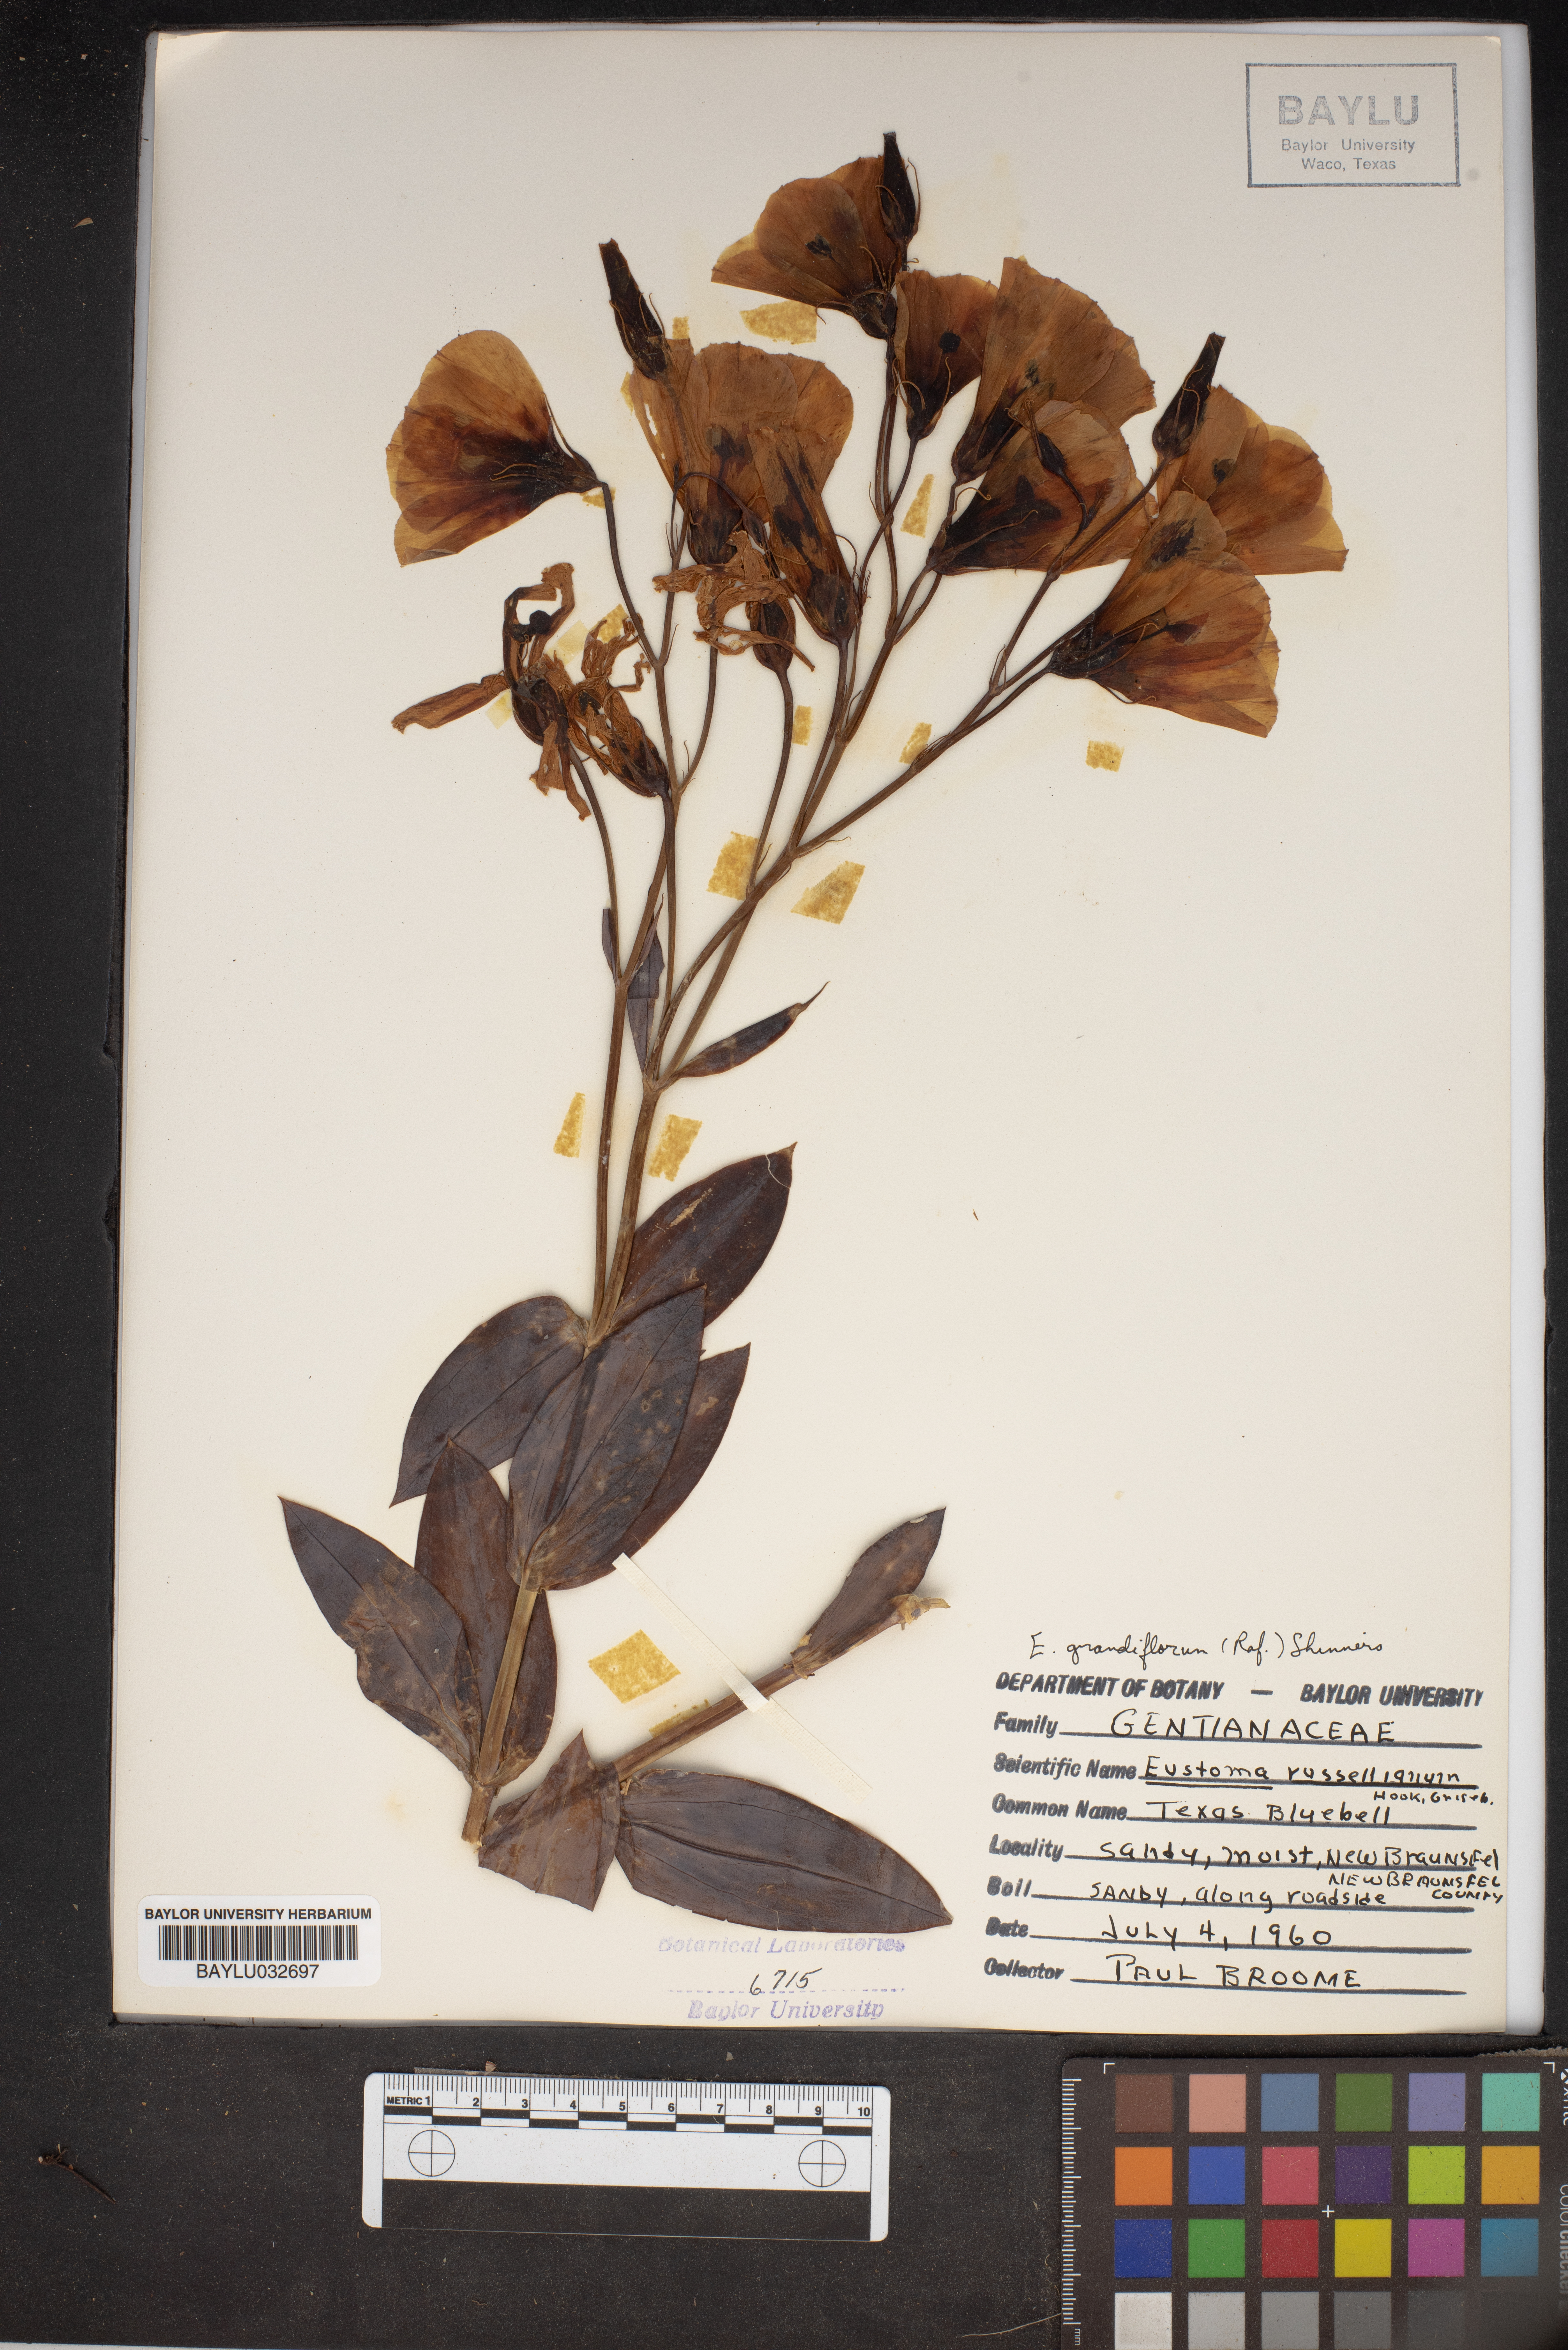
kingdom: Plantae
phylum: Tracheophyta
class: Magnoliopsida
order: Gentianales
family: Gentianaceae
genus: Eustoma
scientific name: Eustoma russellianum
